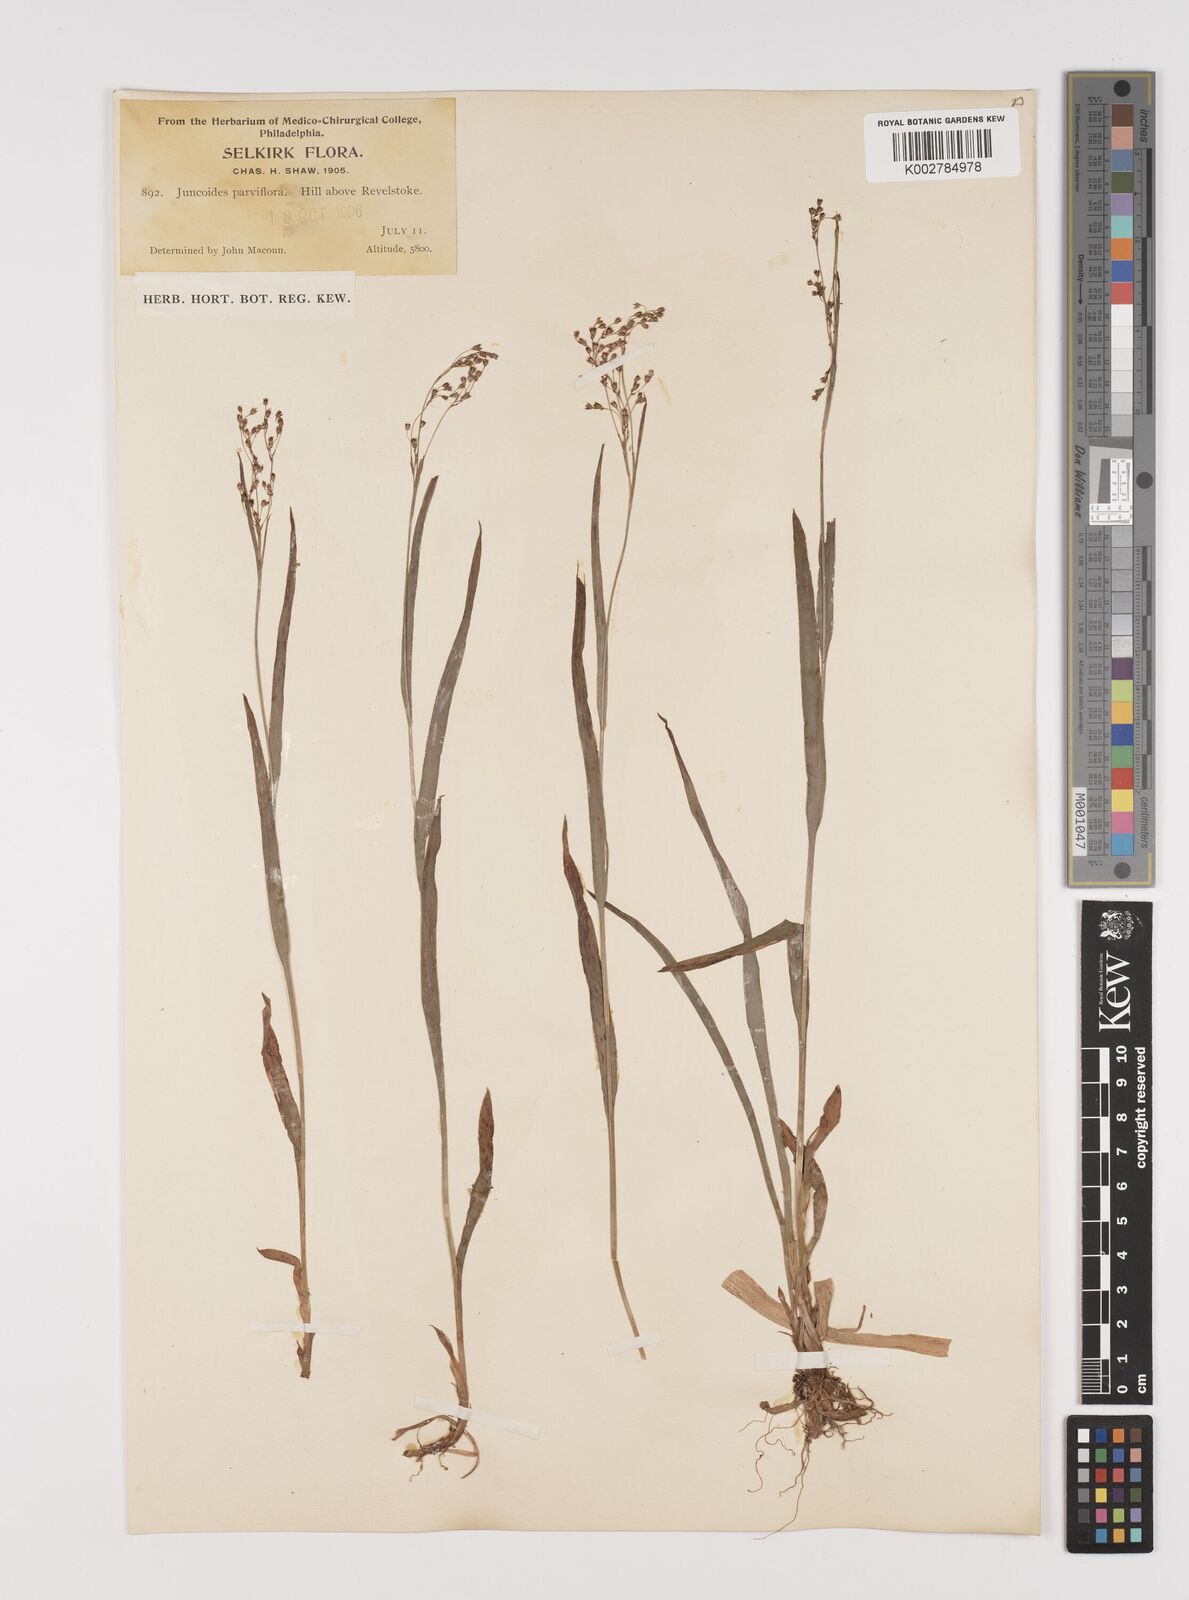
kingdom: Plantae
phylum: Tracheophyta
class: Liliopsida
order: Poales
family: Juncaceae
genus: Luzula
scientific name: Luzula parviflora
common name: Millet woodrush
